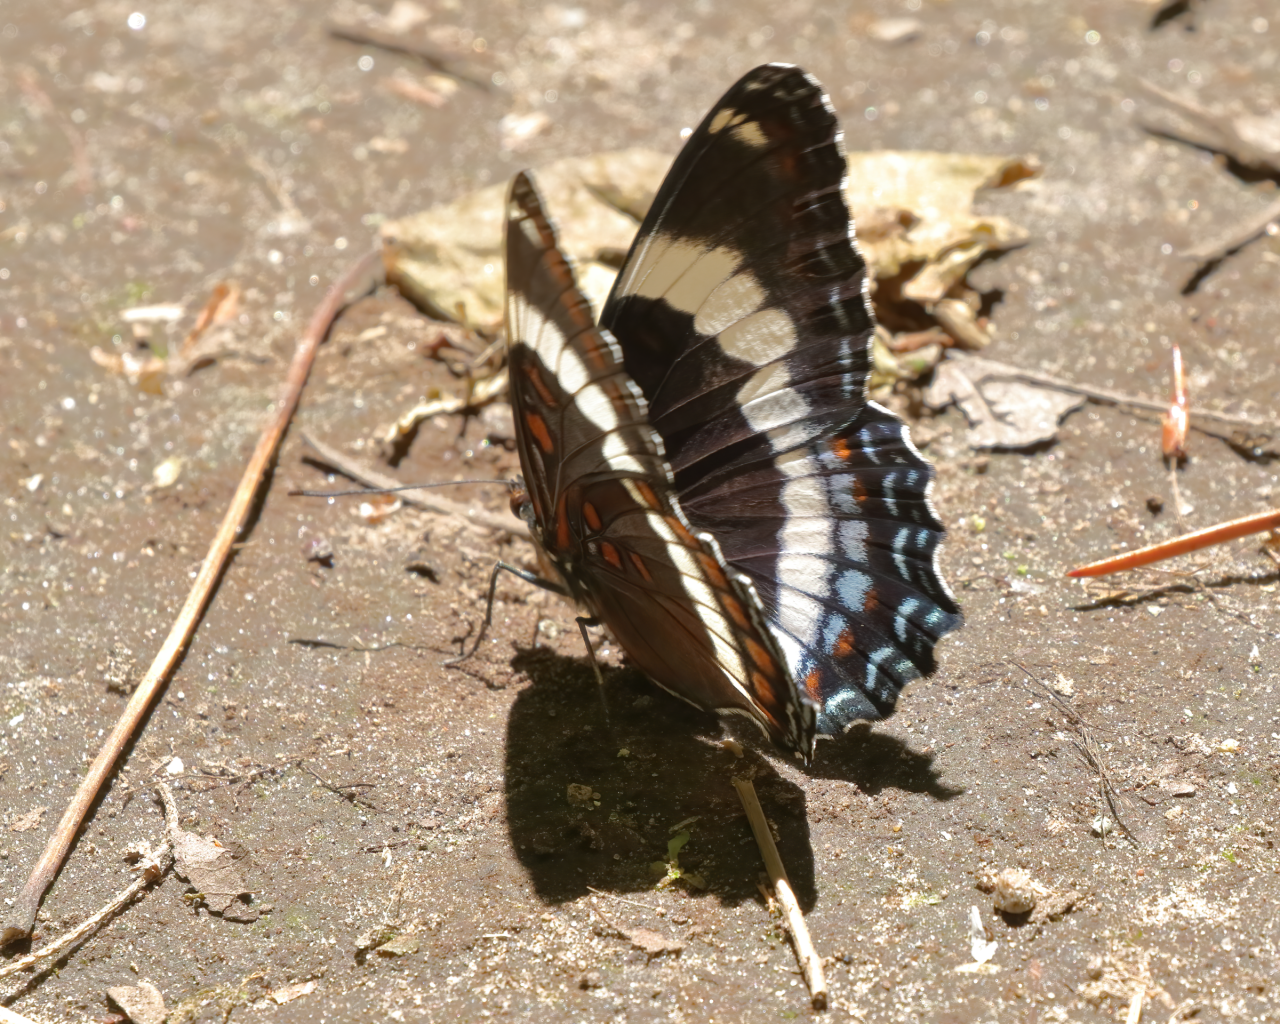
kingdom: Animalia
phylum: Arthropoda
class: Insecta
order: Lepidoptera
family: Nymphalidae
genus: Limenitis
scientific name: Limenitis arthemis
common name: Red-spotted Admiral
